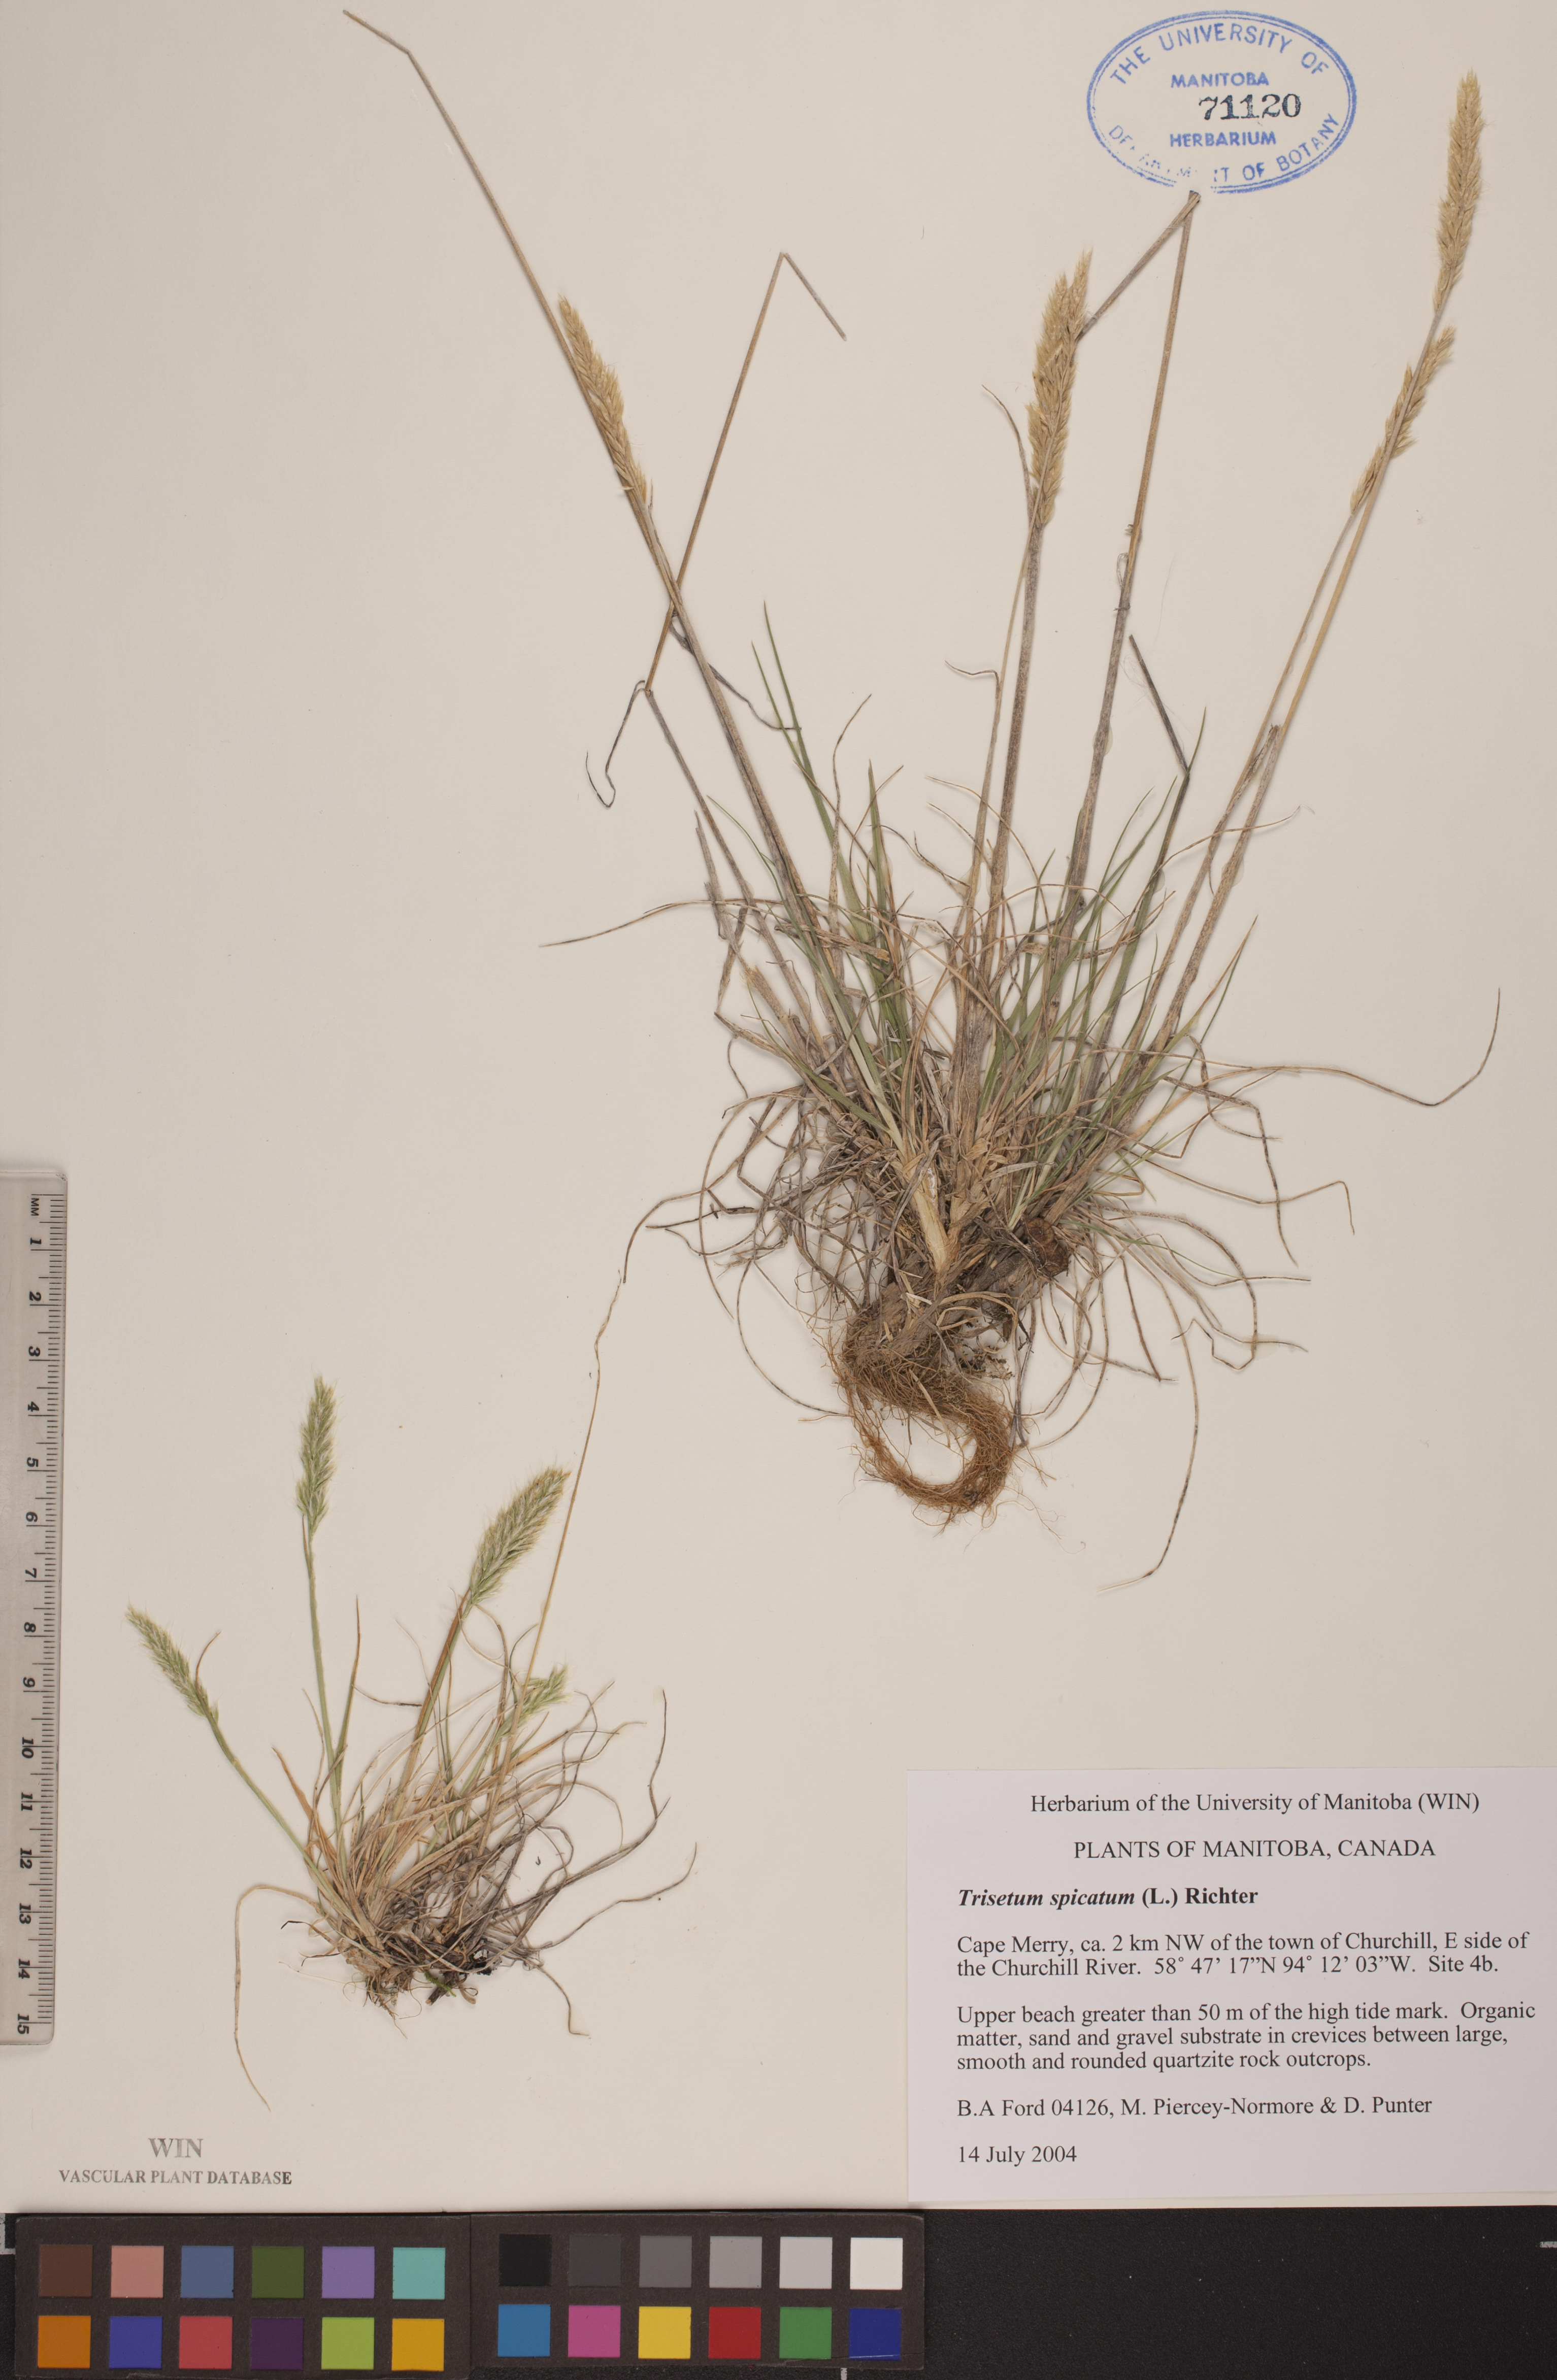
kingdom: Plantae
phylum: Tracheophyta
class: Liliopsida
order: Poales
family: Poaceae
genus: Koeleria
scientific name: Koeleria spicata
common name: Mountain trisetum
